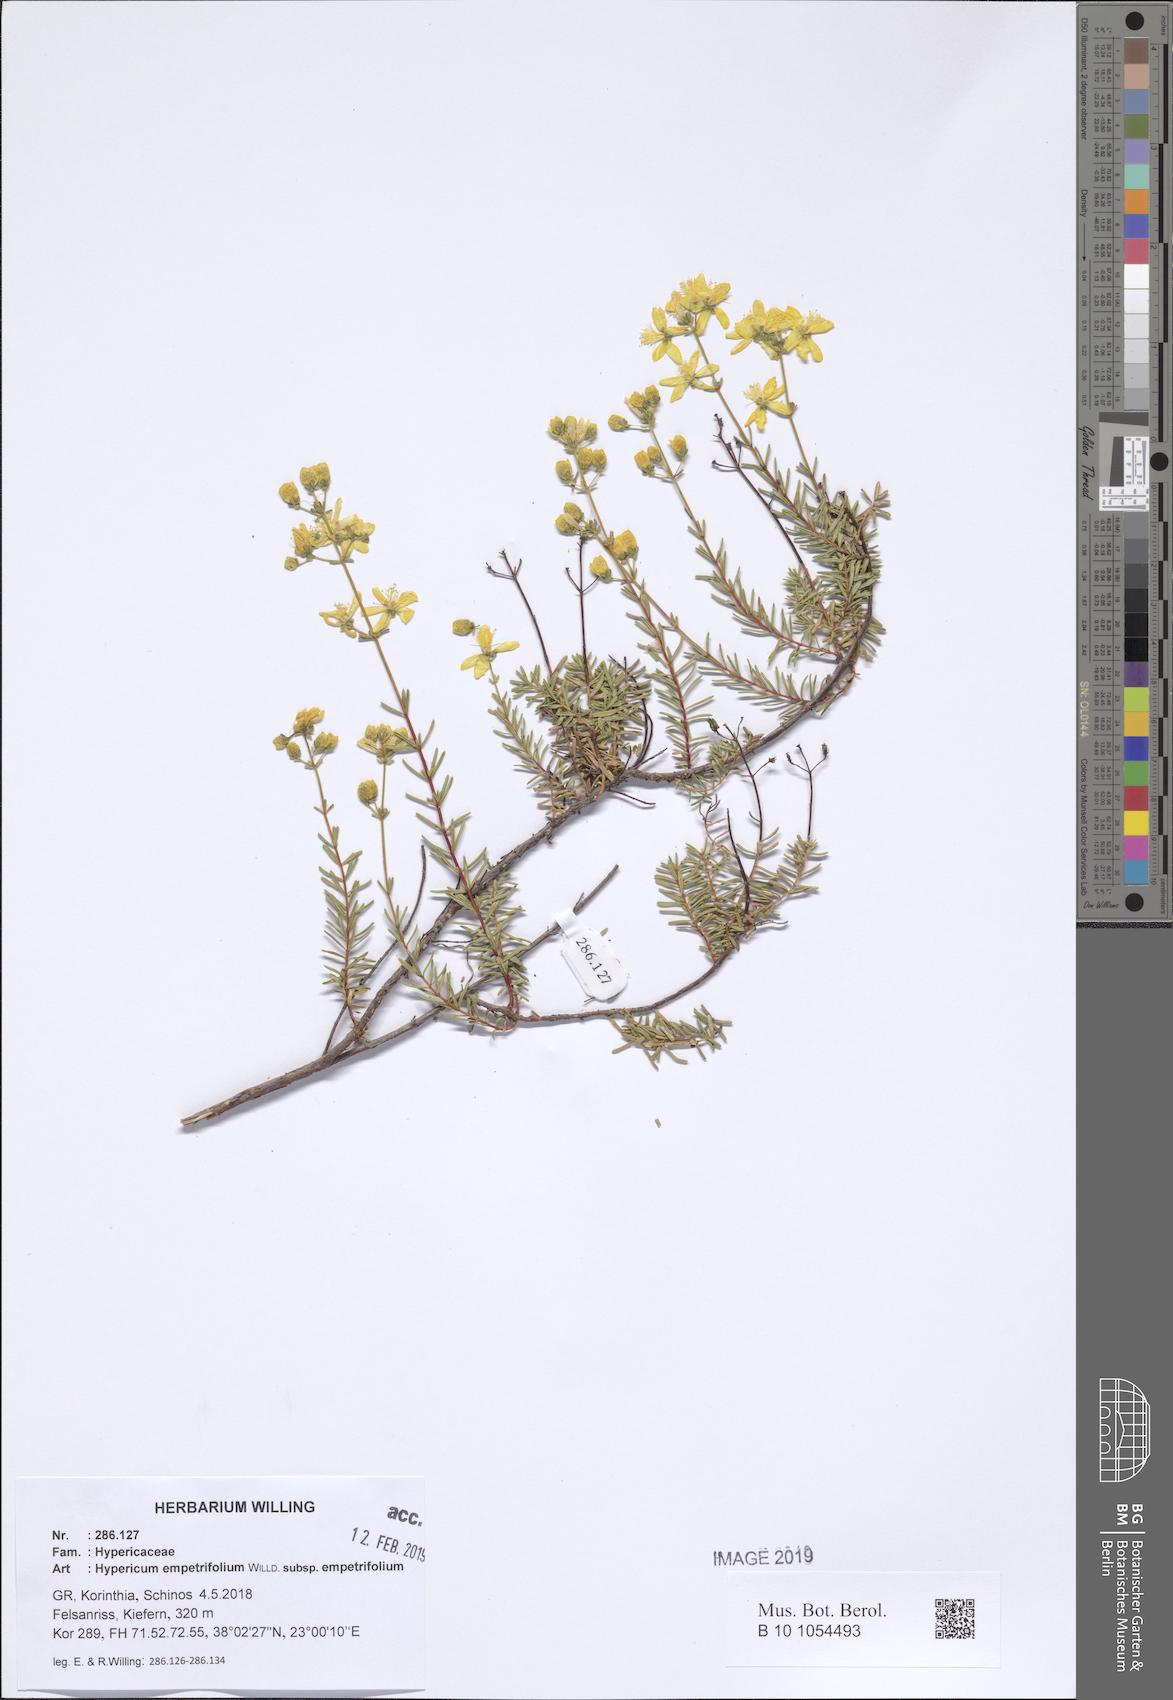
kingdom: Plantae
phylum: Tracheophyta
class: Magnoliopsida
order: Malpighiales
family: Hypericaceae
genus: Hypericum
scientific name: Hypericum empetrifolium
